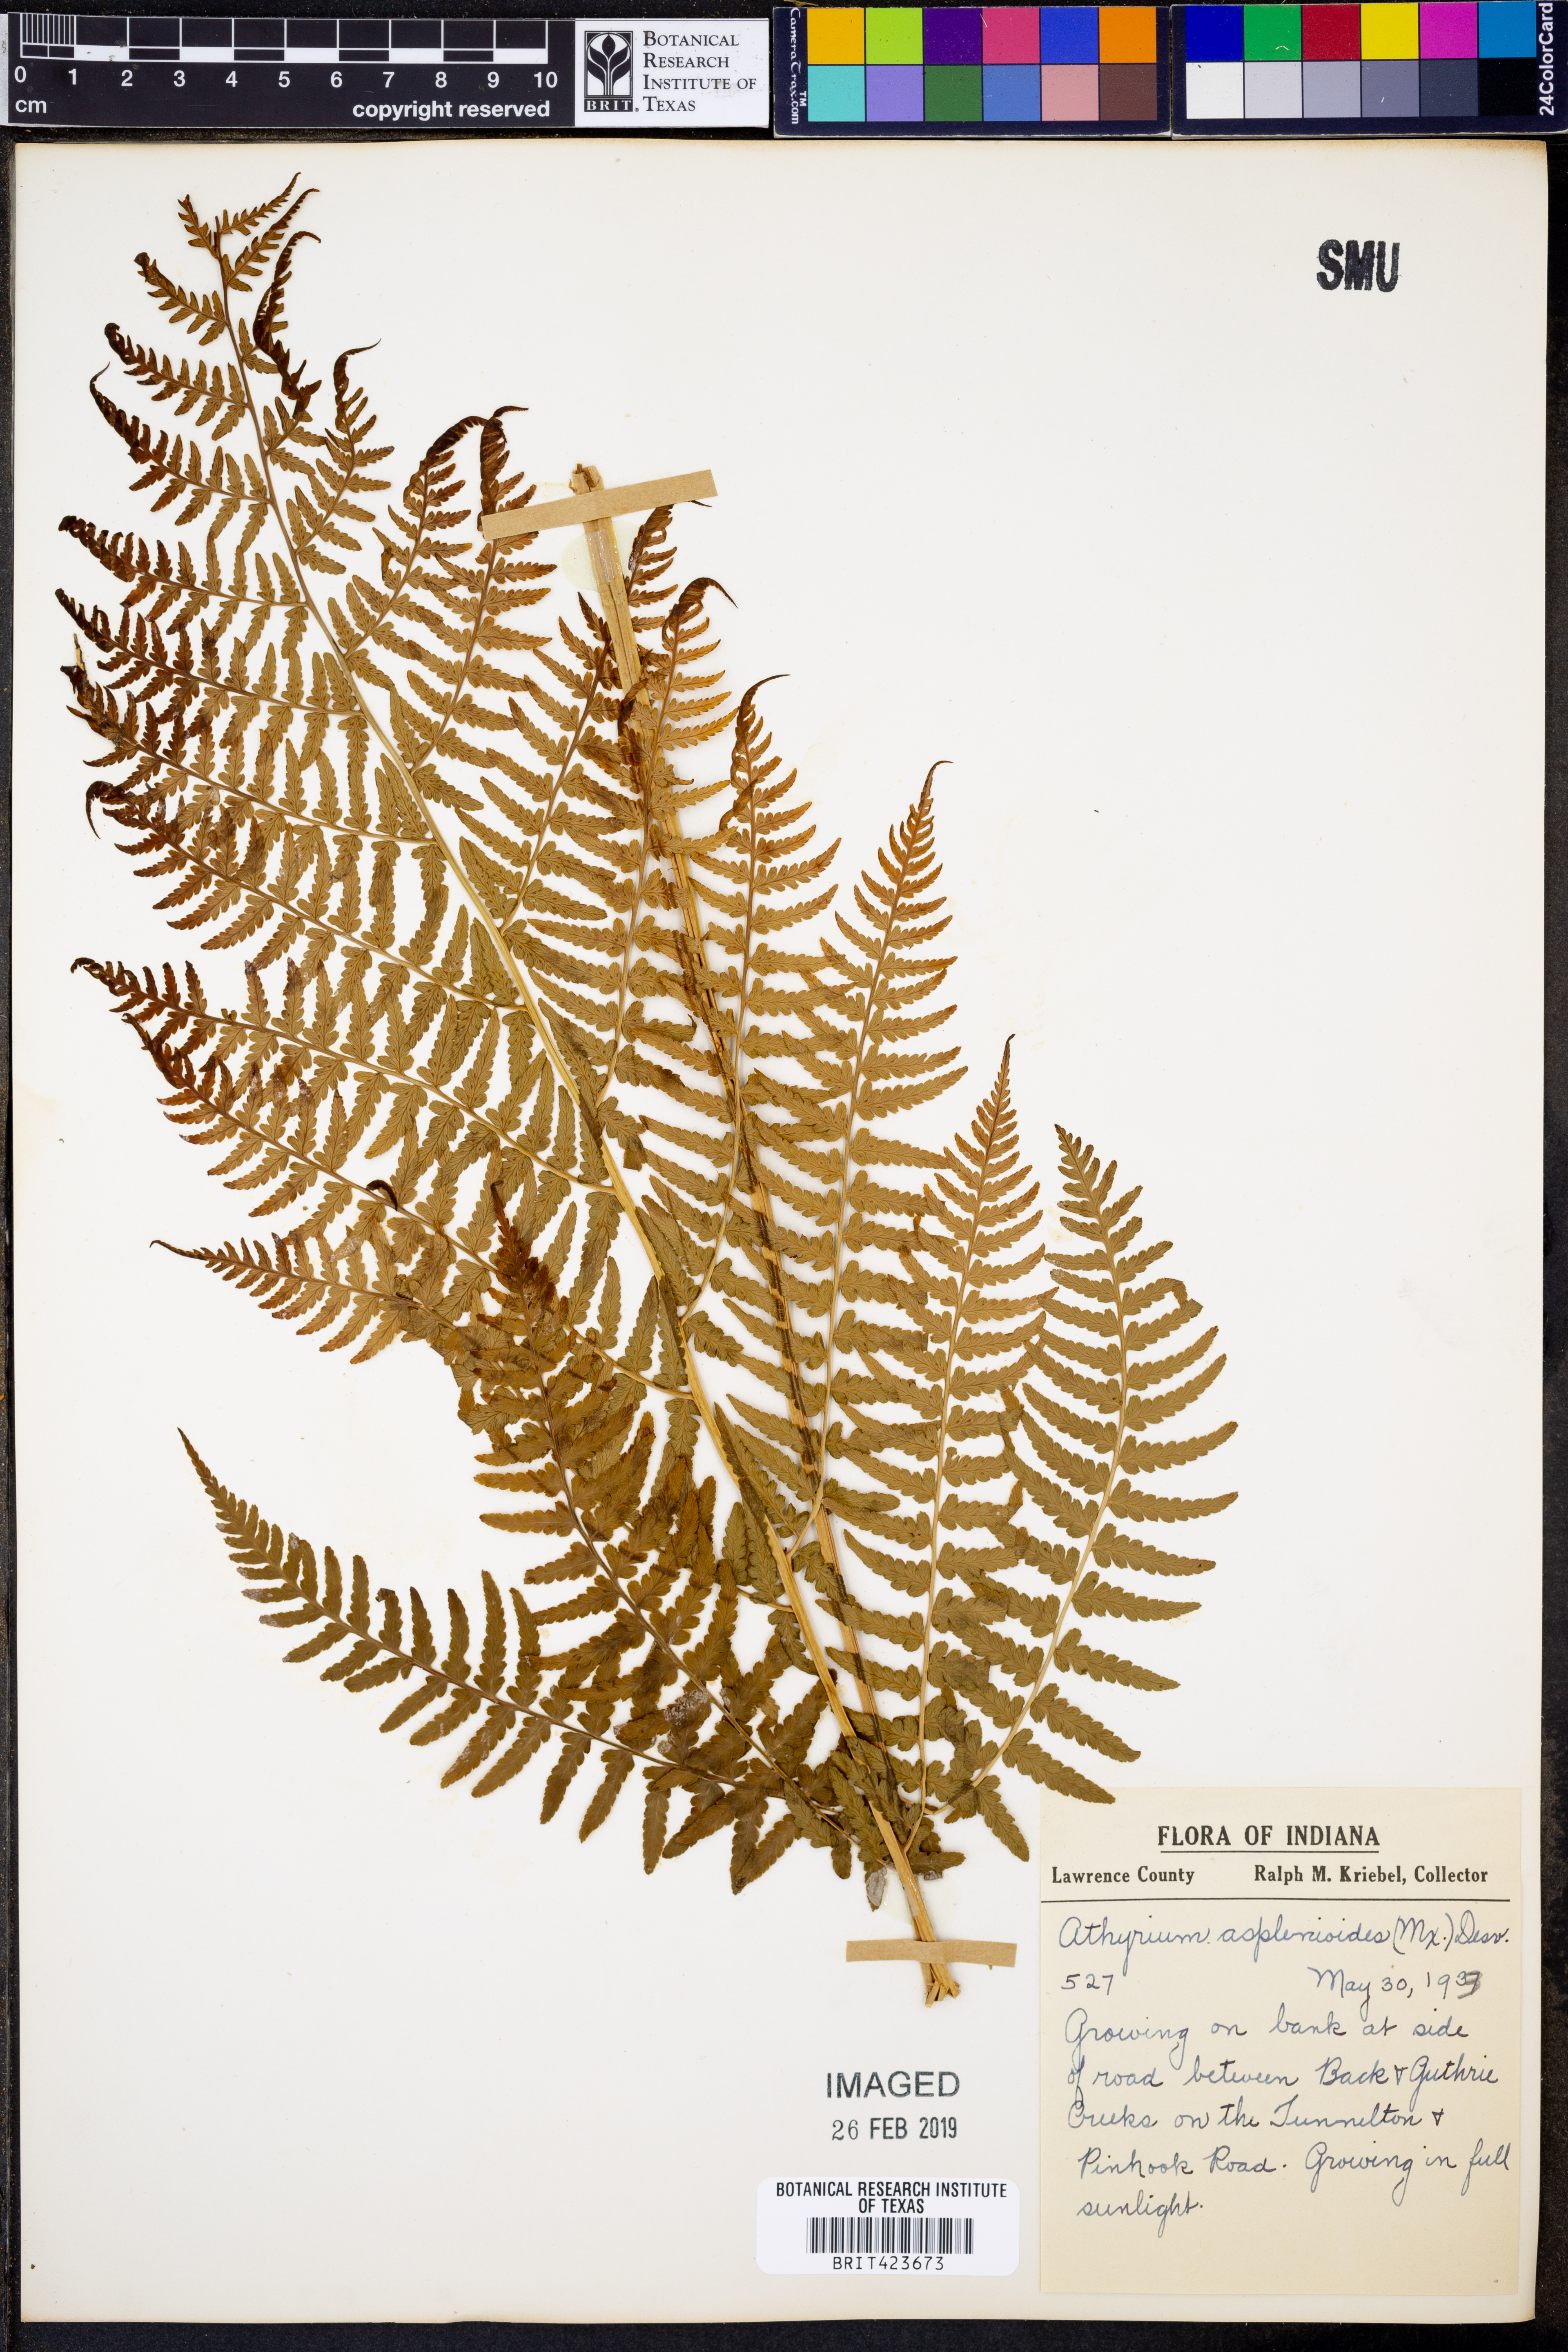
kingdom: Plantae
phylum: Tracheophyta
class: Polypodiopsida
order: Polypodiales
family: Athyriaceae
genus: Athyrium
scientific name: Athyrium asplenioides
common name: Southern lady fern
